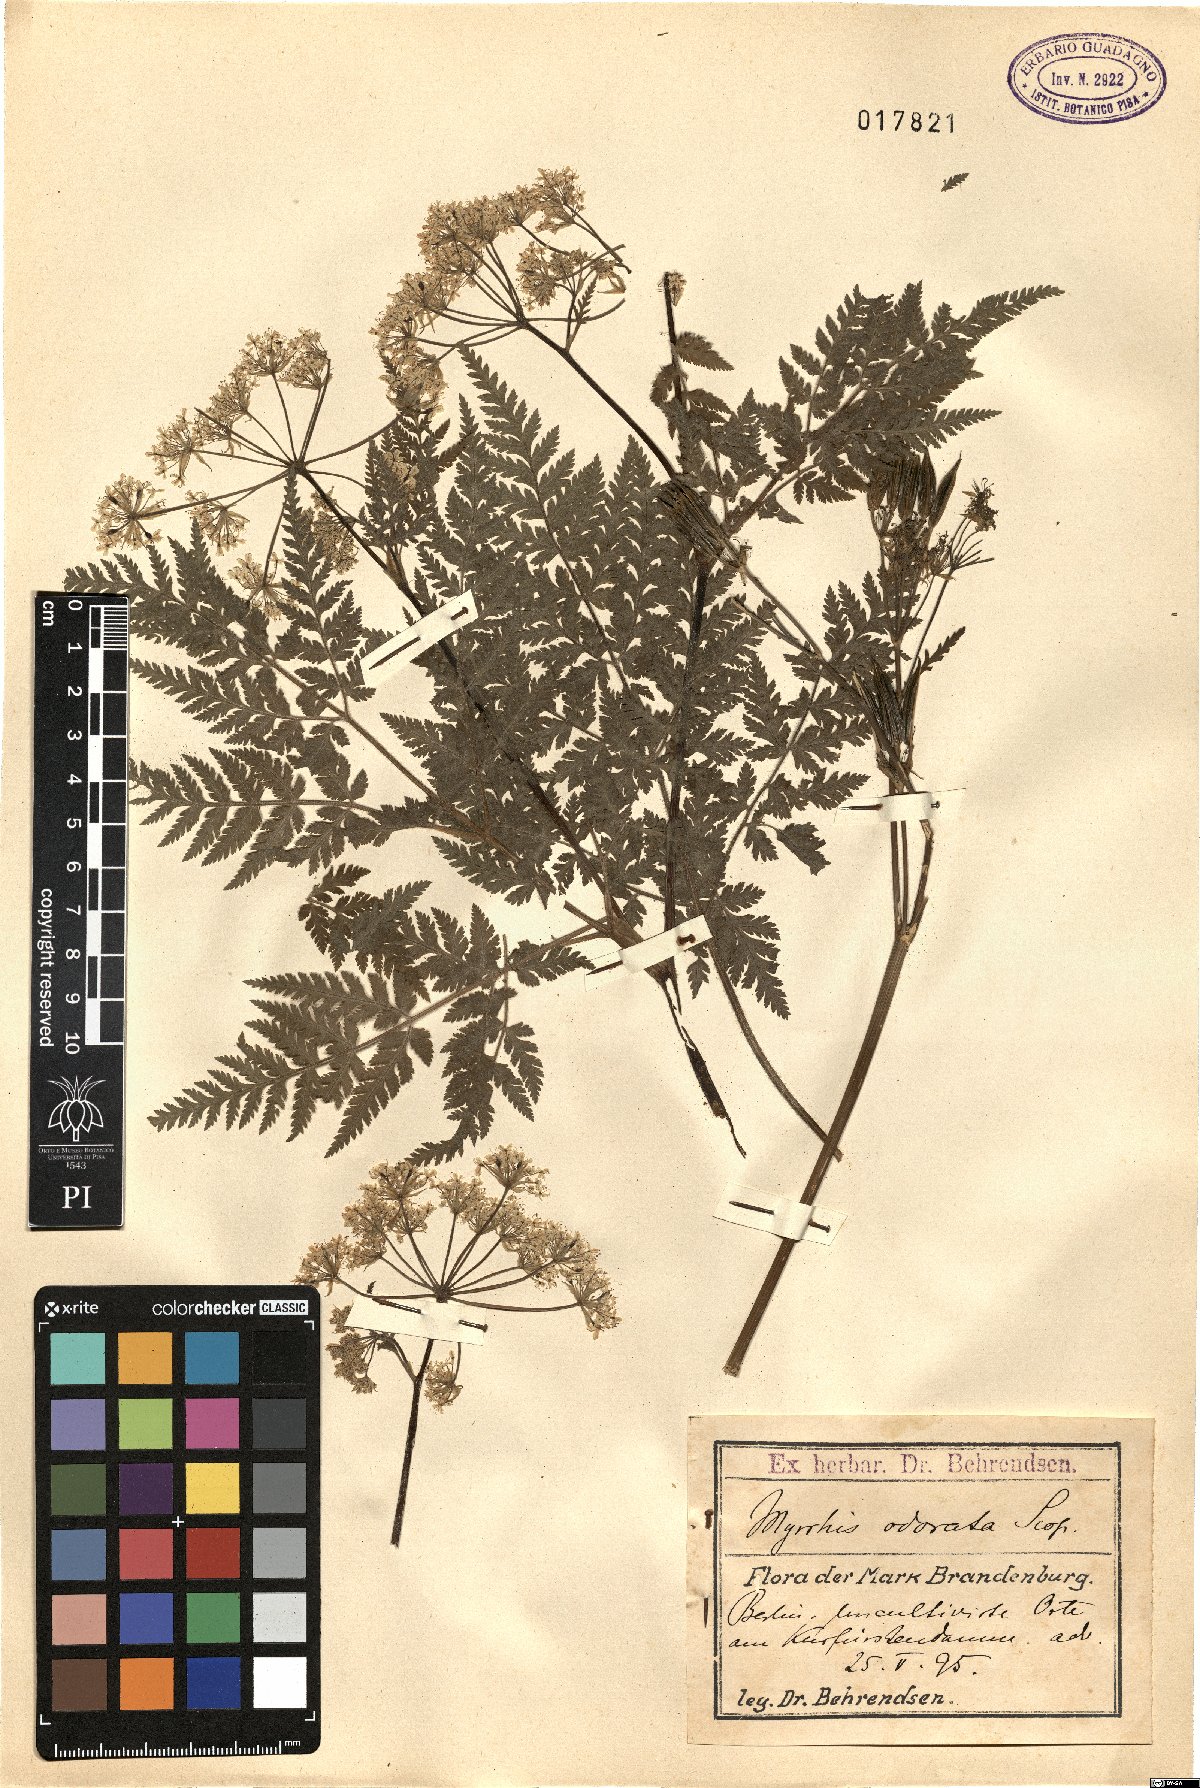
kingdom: Plantae
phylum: Tracheophyta
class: Magnoliopsida
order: Apiales
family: Apiaceae
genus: Myrrhis
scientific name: Myrrhis odorata
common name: Sweet cicely
